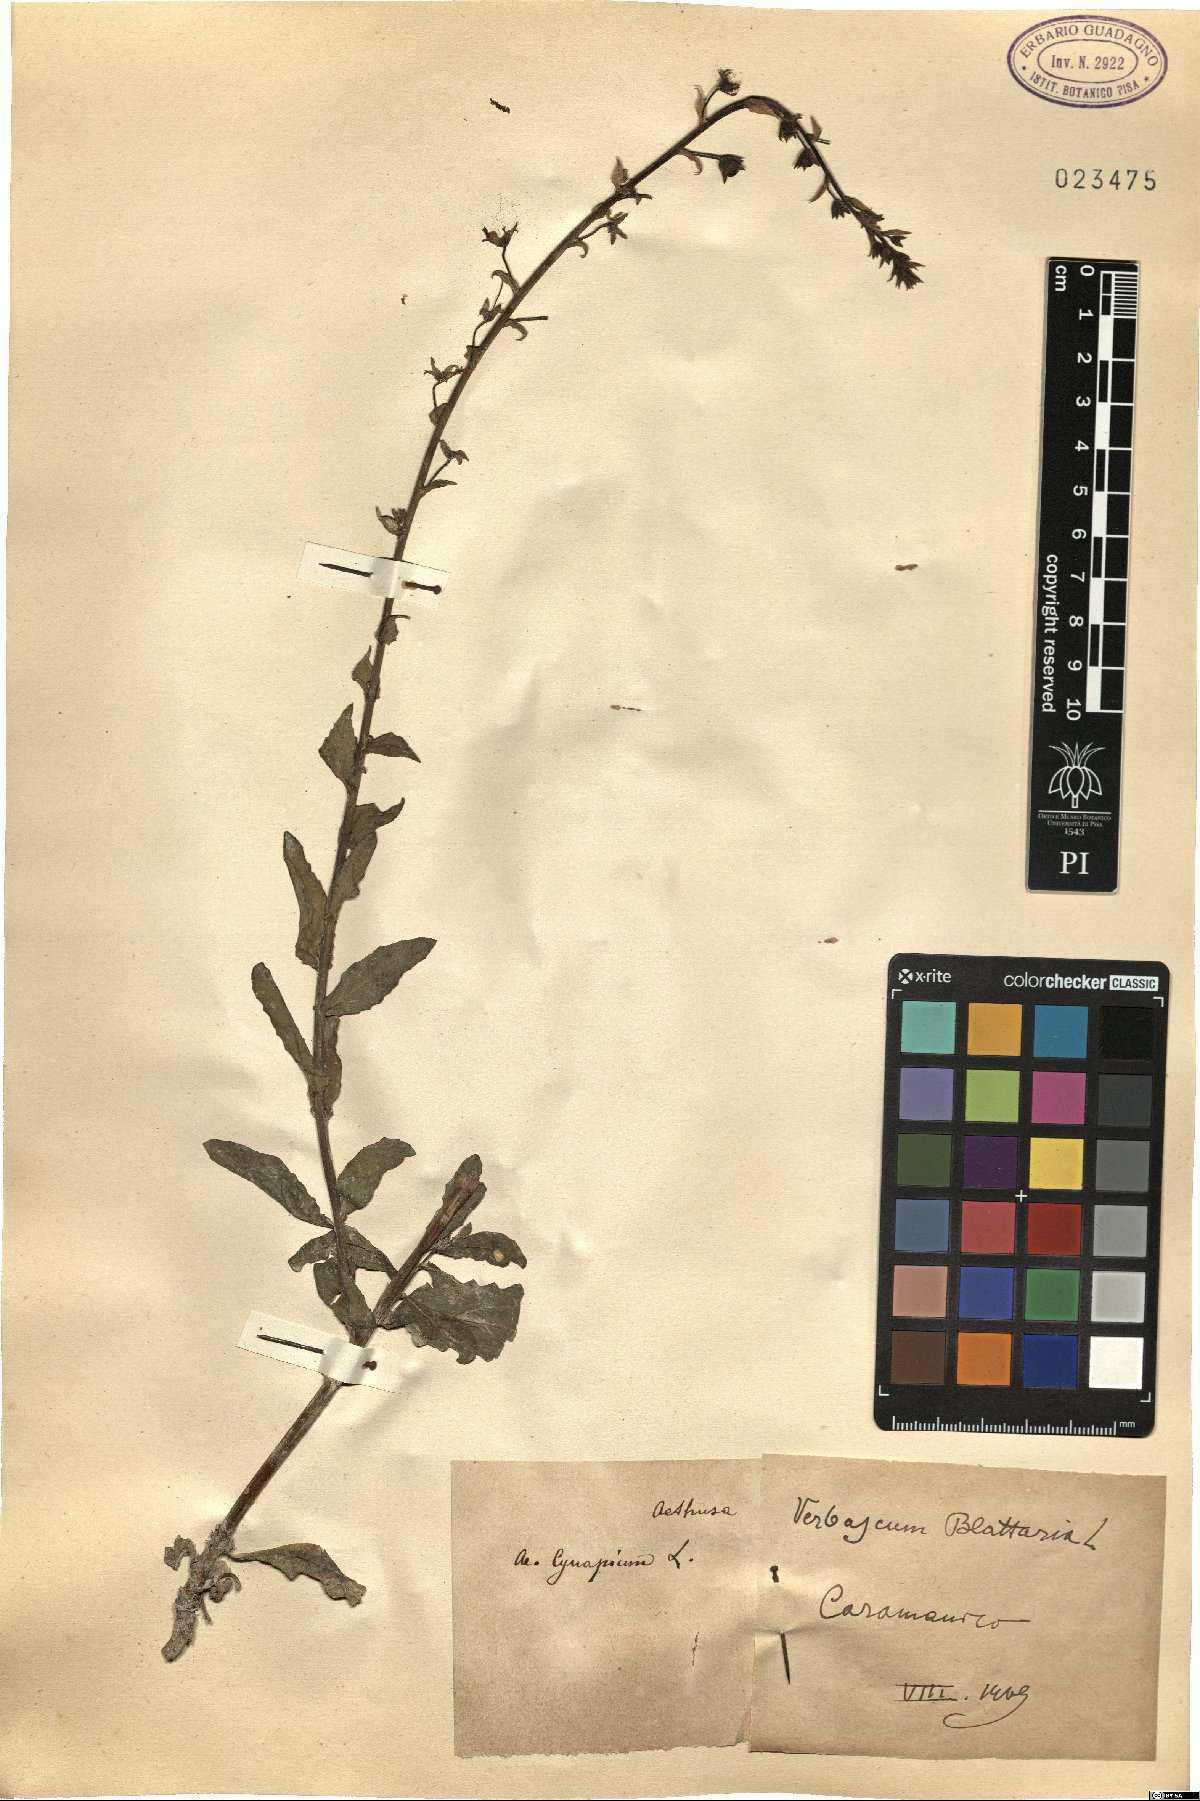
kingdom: Plantae
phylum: Tracheophyta
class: Magnoliopsida
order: Lamiales
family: Scrophulariaceae
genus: Verbascum
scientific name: Verbascum blattaria
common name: Moth mullein
